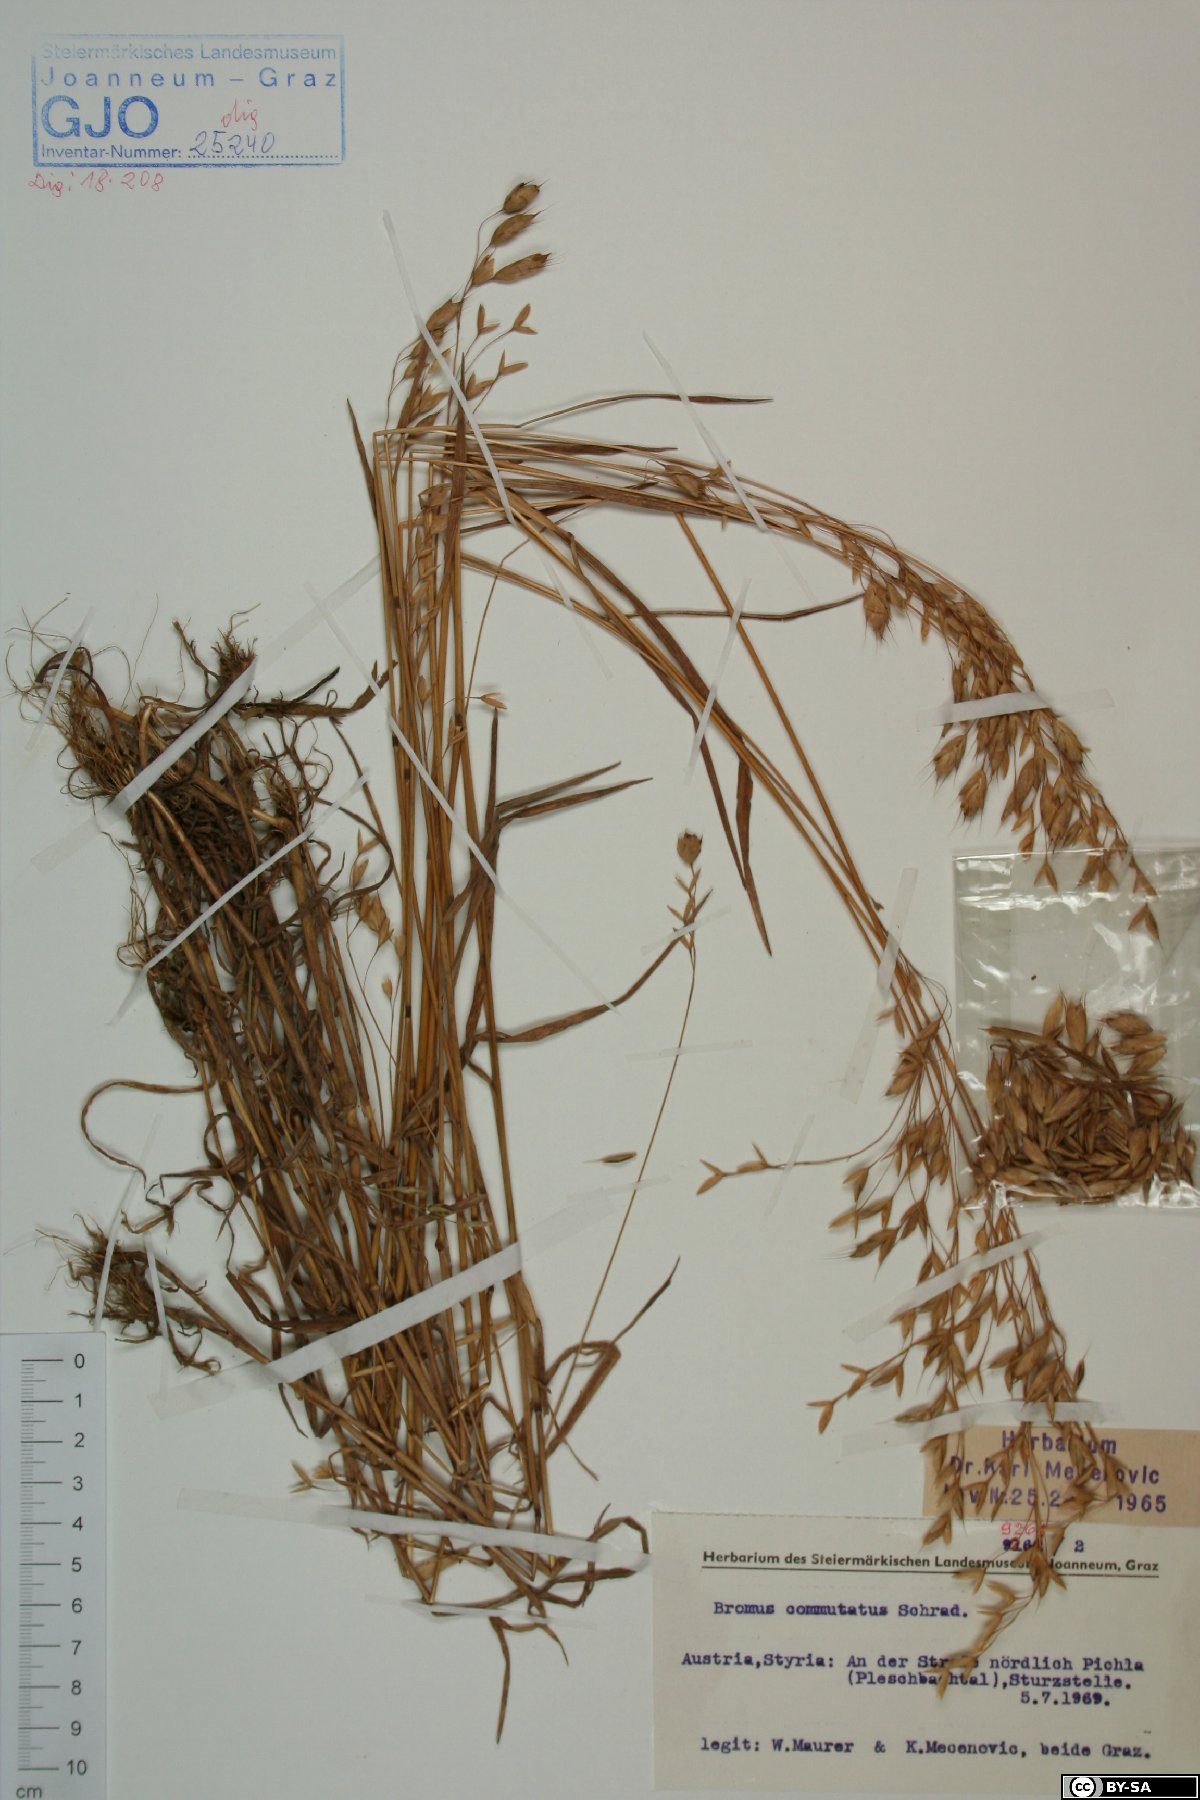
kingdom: Plantae
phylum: Tracheophyta
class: Liliopsida
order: Poales
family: Poaceae
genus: Bromus
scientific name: Bromus commutatus
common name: Meadow brome
